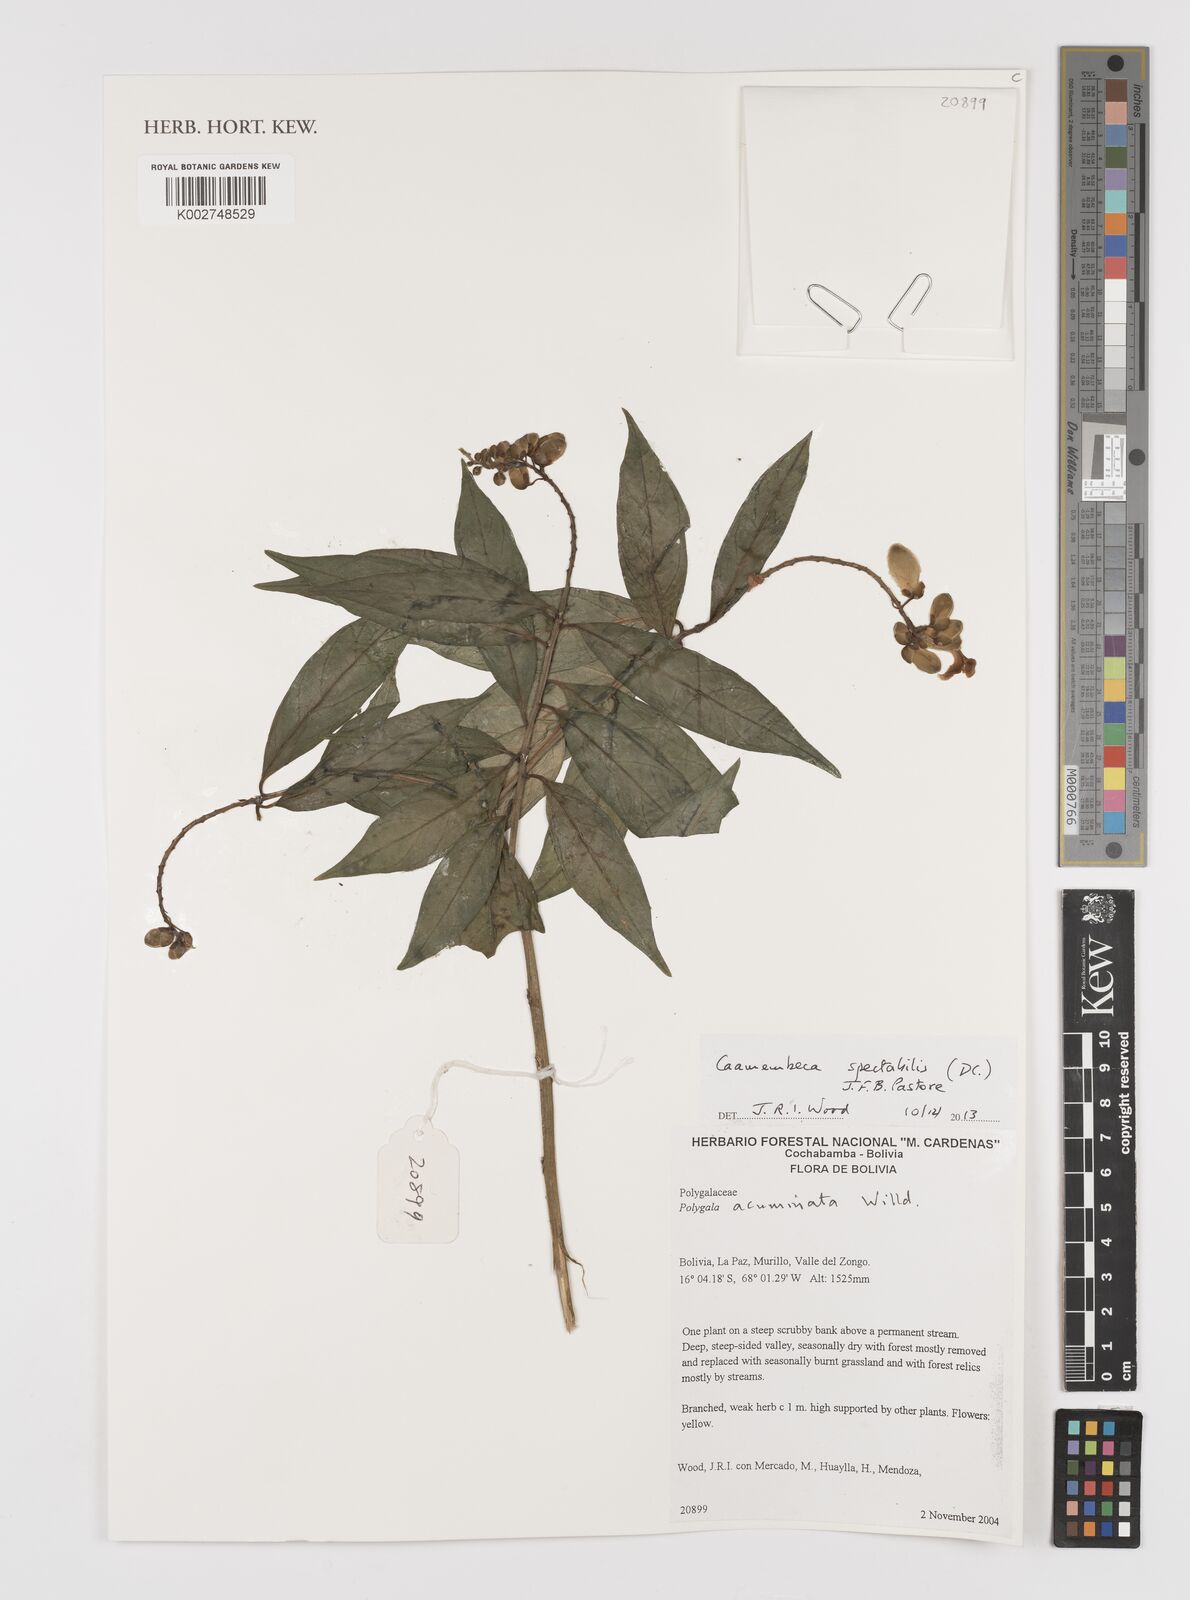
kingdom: Plantae
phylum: Tracheophyta
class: Magnoliopsida
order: Fabales
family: Polygalaceae
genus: Caamembeca
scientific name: Caamembeca spectabilis
